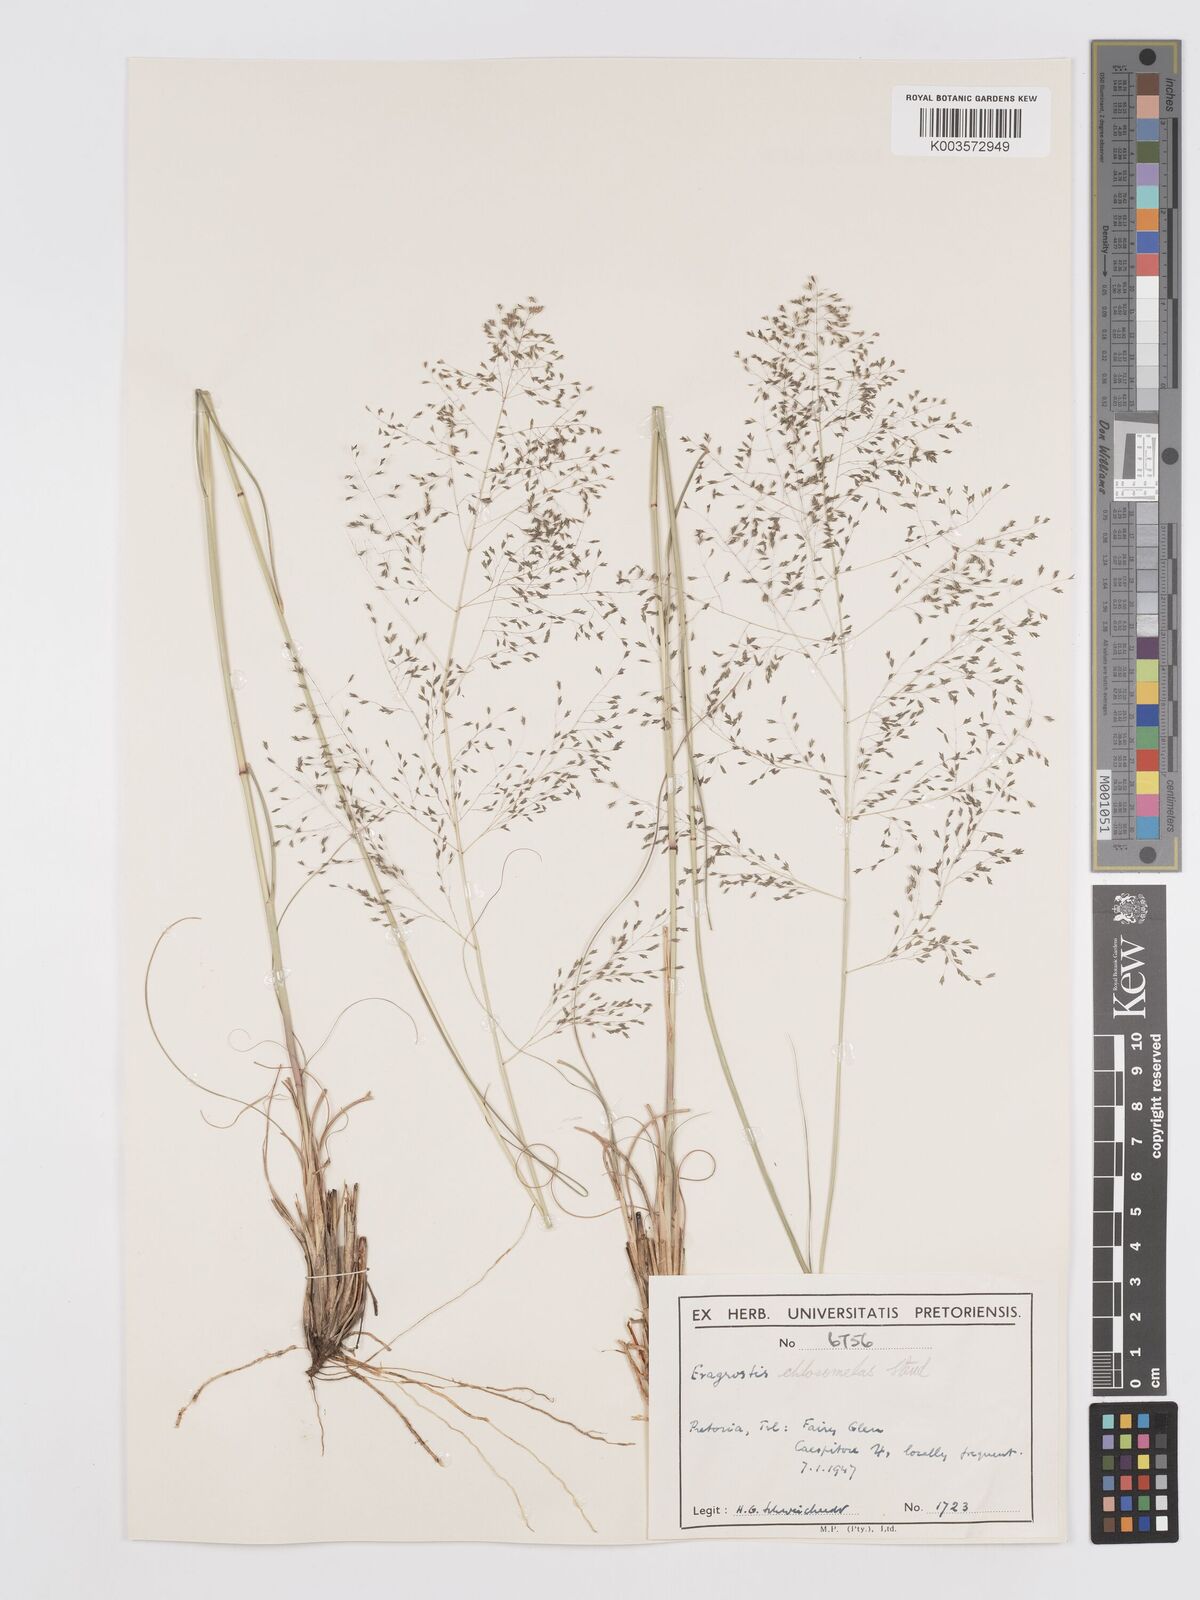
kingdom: Plantae
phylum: Tracheophyta
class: Liliopsida
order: Poales
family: Poaceae
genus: Eragrostis
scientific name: Eragrostis curvula
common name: African love-grass
